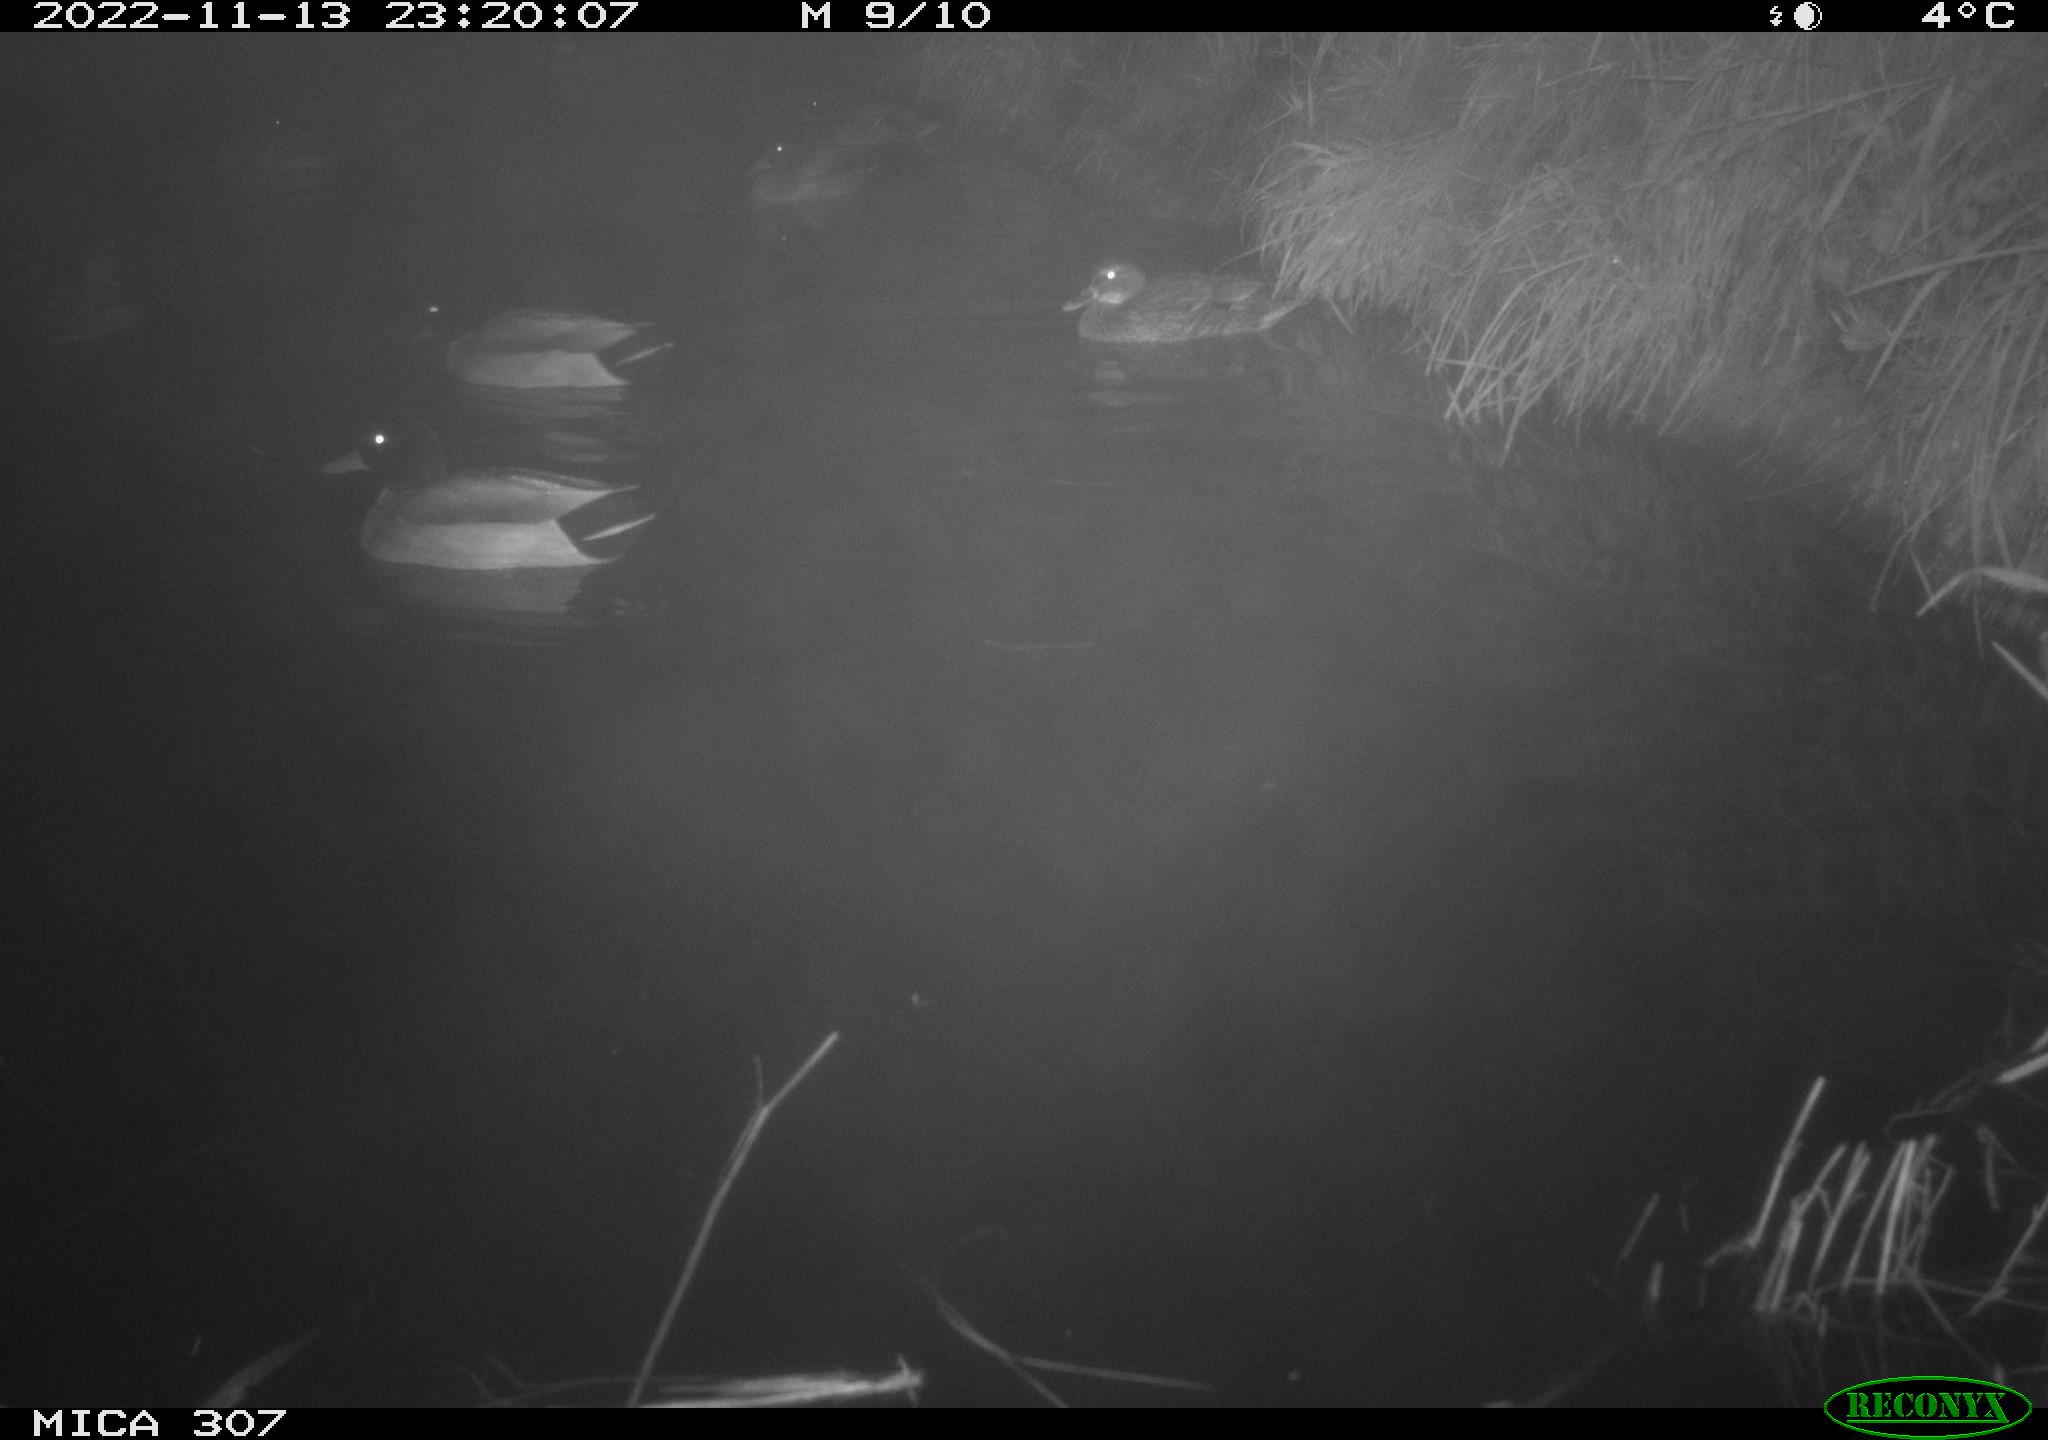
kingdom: Animalia
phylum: Chordata
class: Aves
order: Anseriformes
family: Anatidae
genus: Anas
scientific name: Anas
